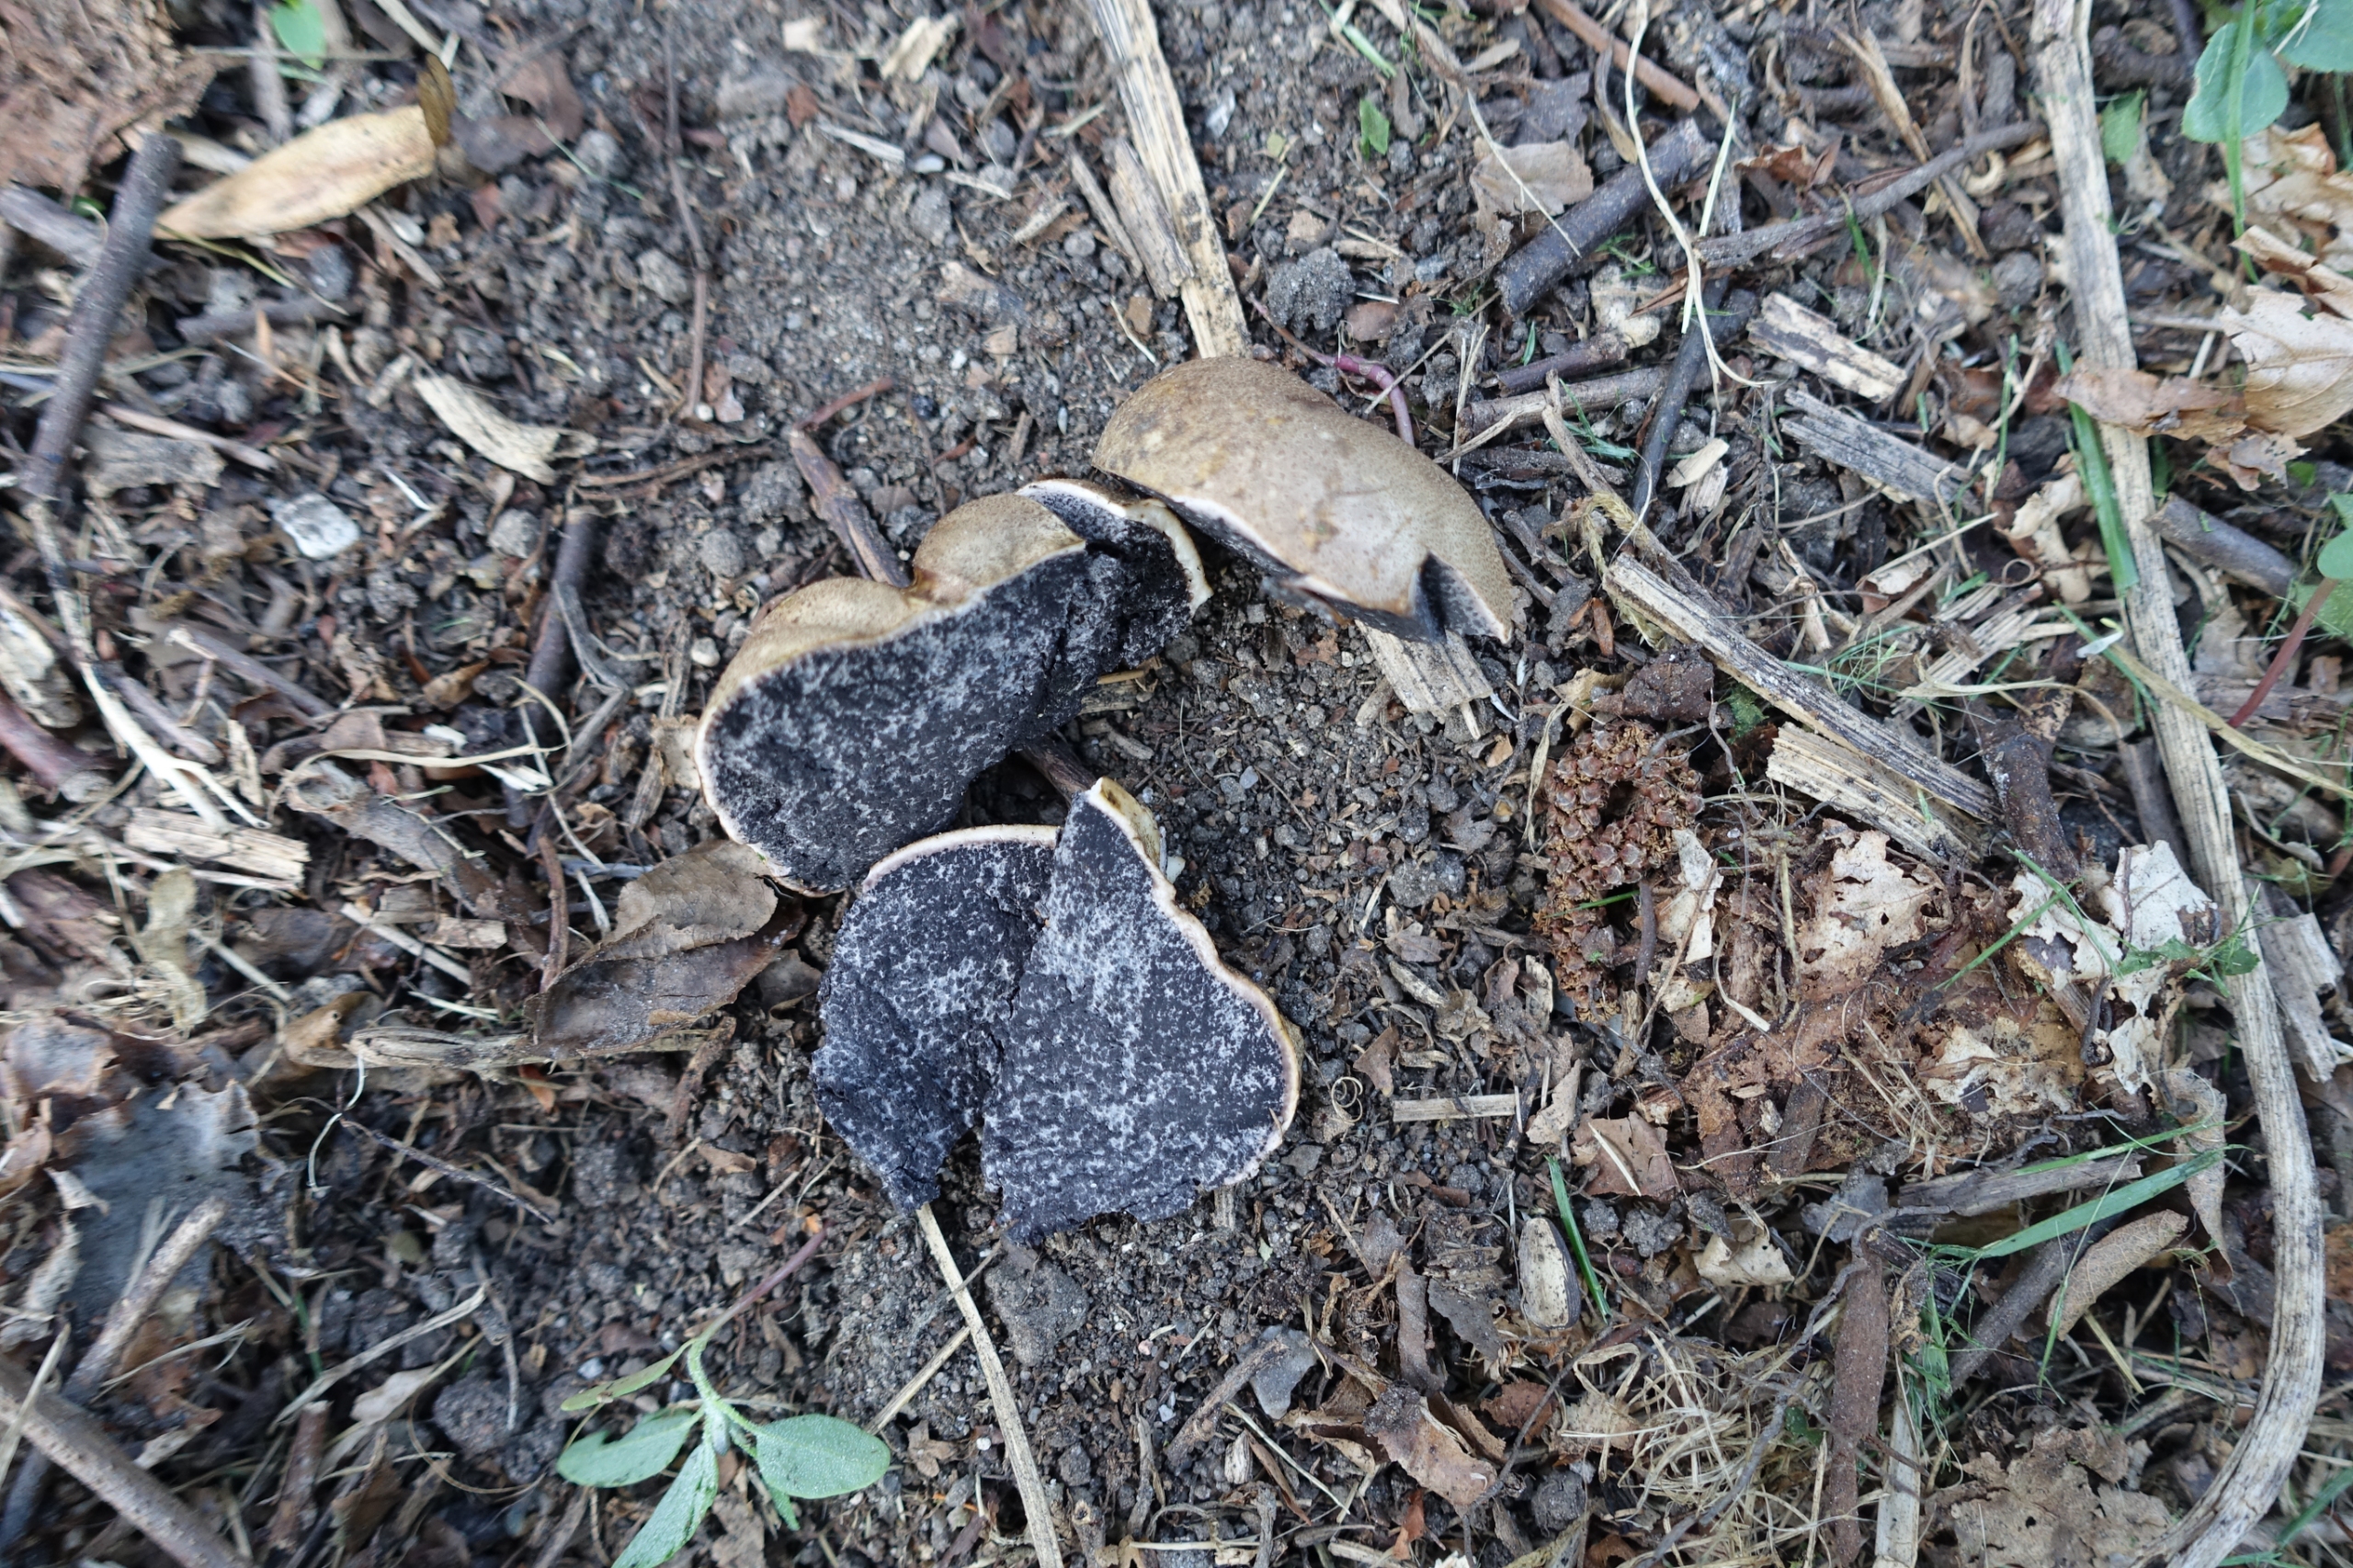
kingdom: Fungi
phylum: Basidiomycota
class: Agaricomycetes
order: Boletales
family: Sclerodermataceae
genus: Scleroderma
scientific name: Scleroderma
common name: Bruskbold
